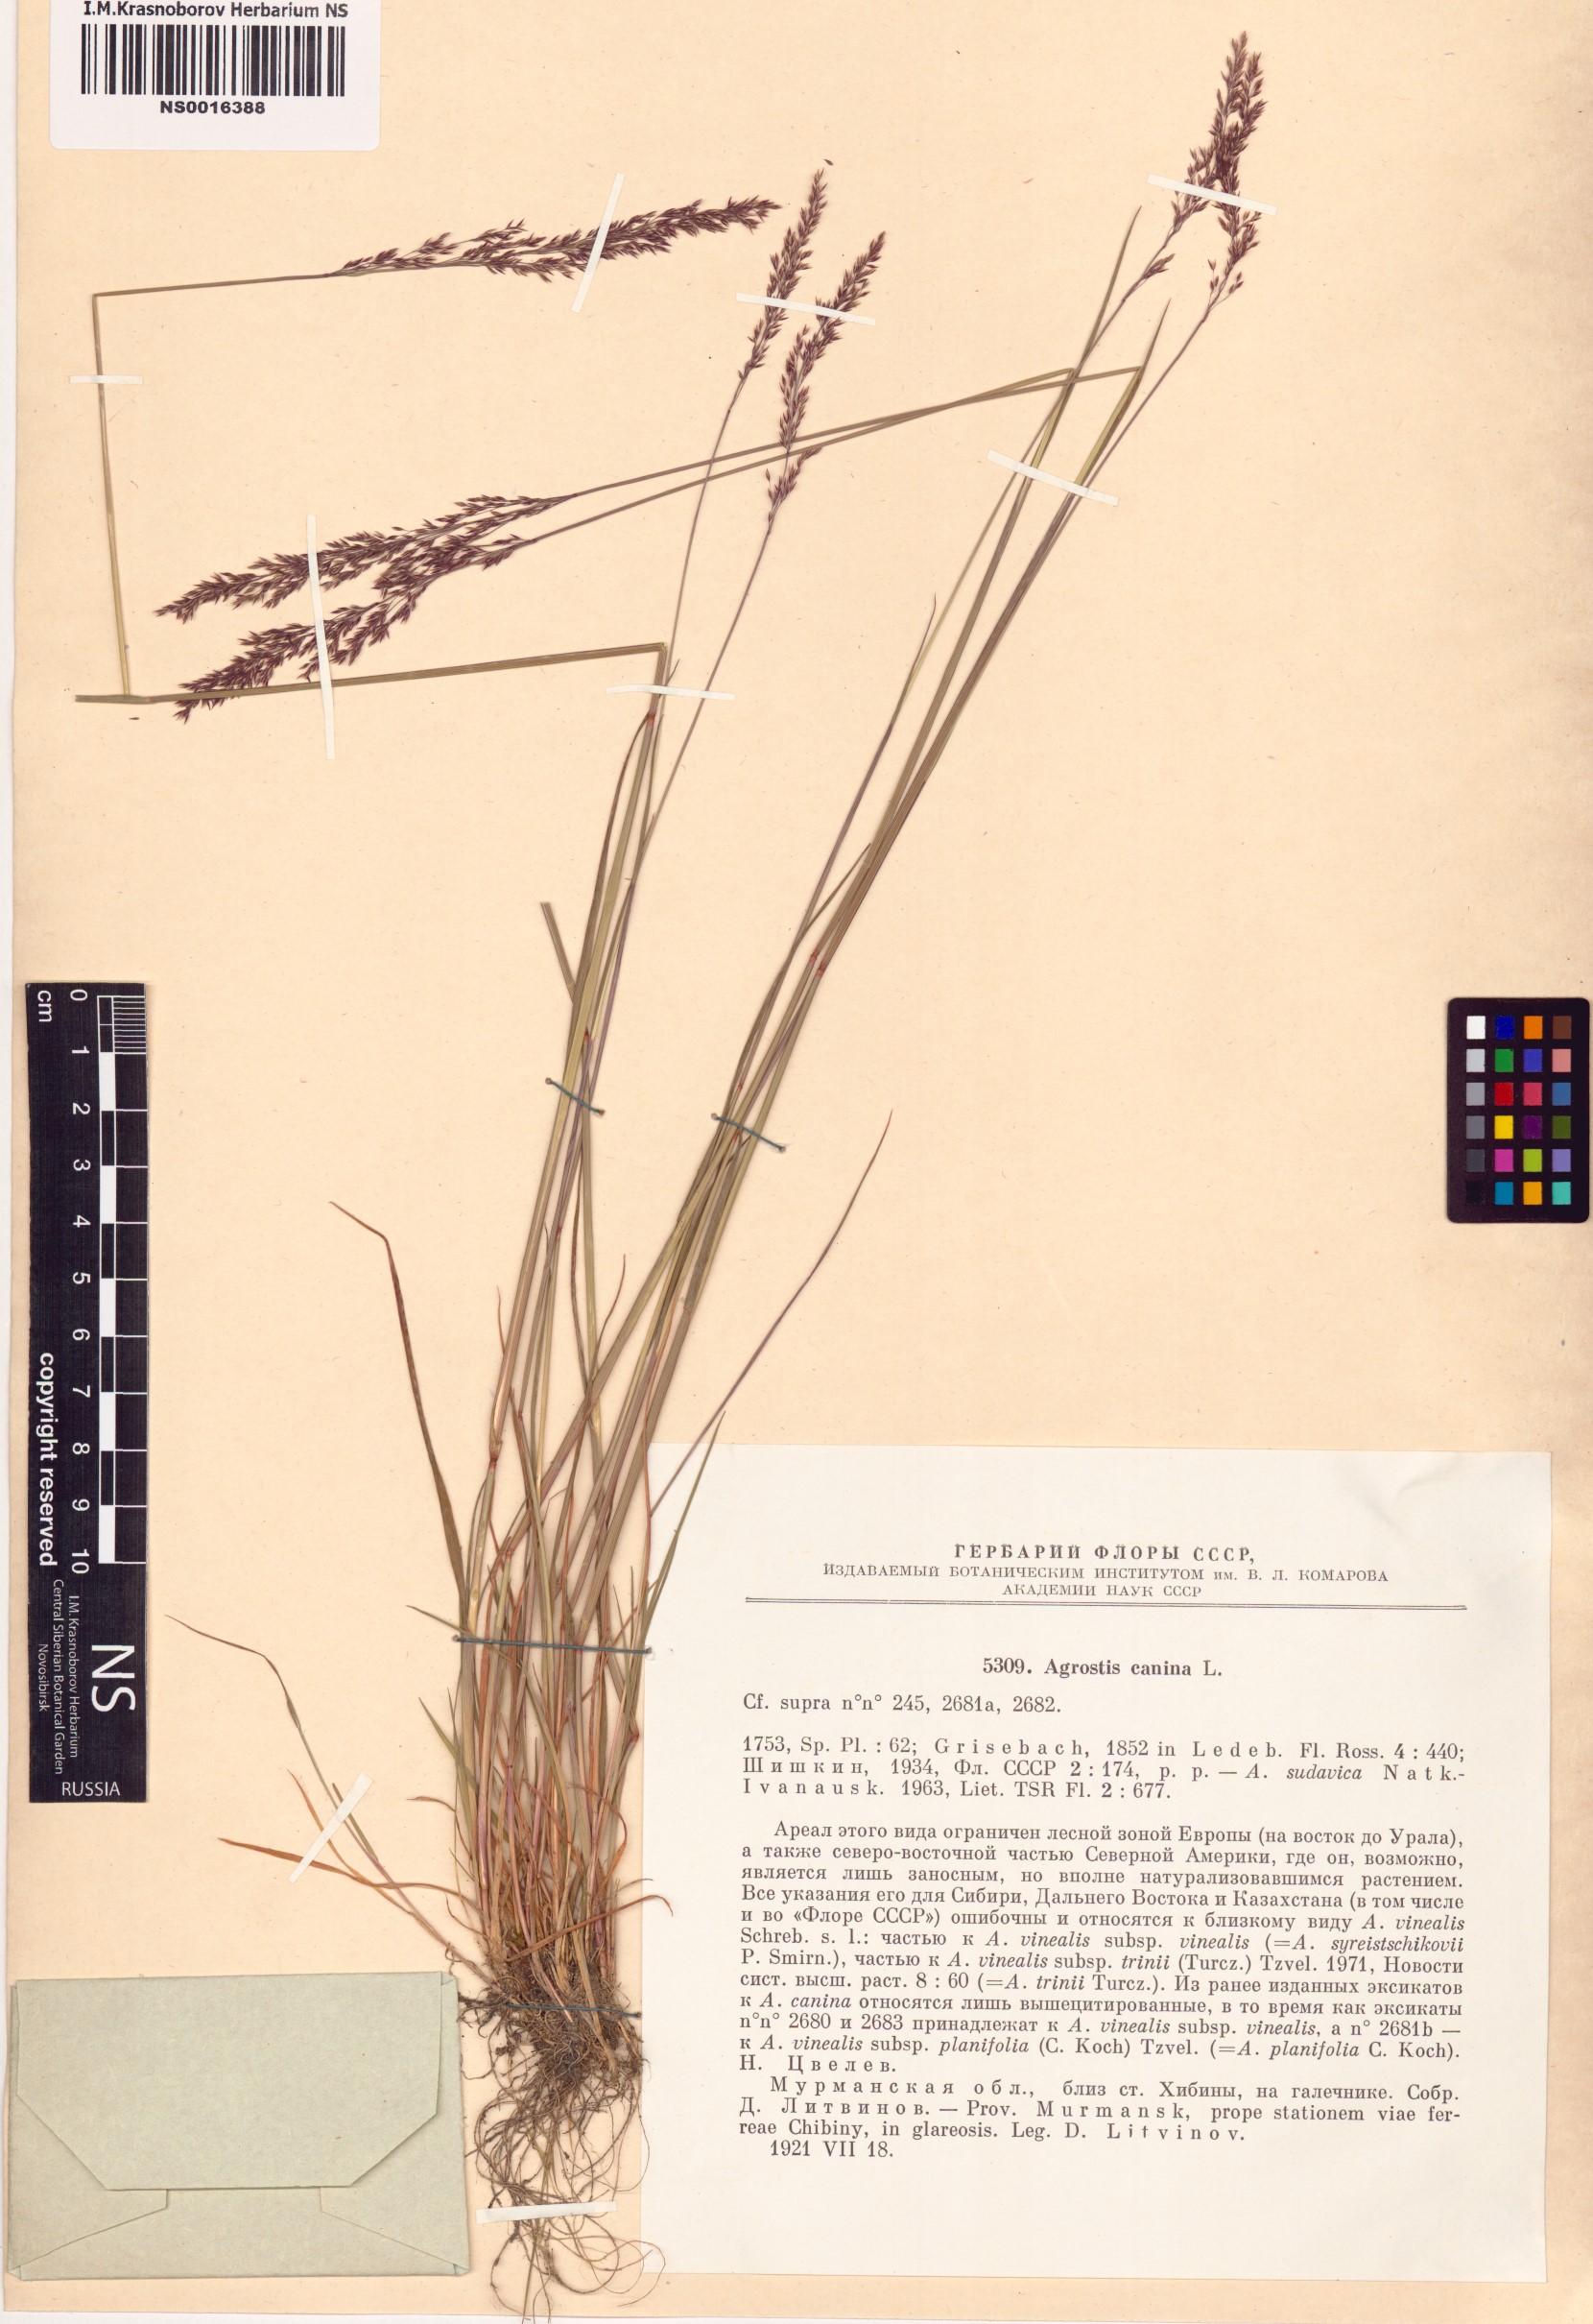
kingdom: Plantae
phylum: Tracheophyta
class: Liliopsida
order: Poales
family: Poaceae
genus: Agrostis
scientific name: Agrostis canina
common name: Velvet bent
